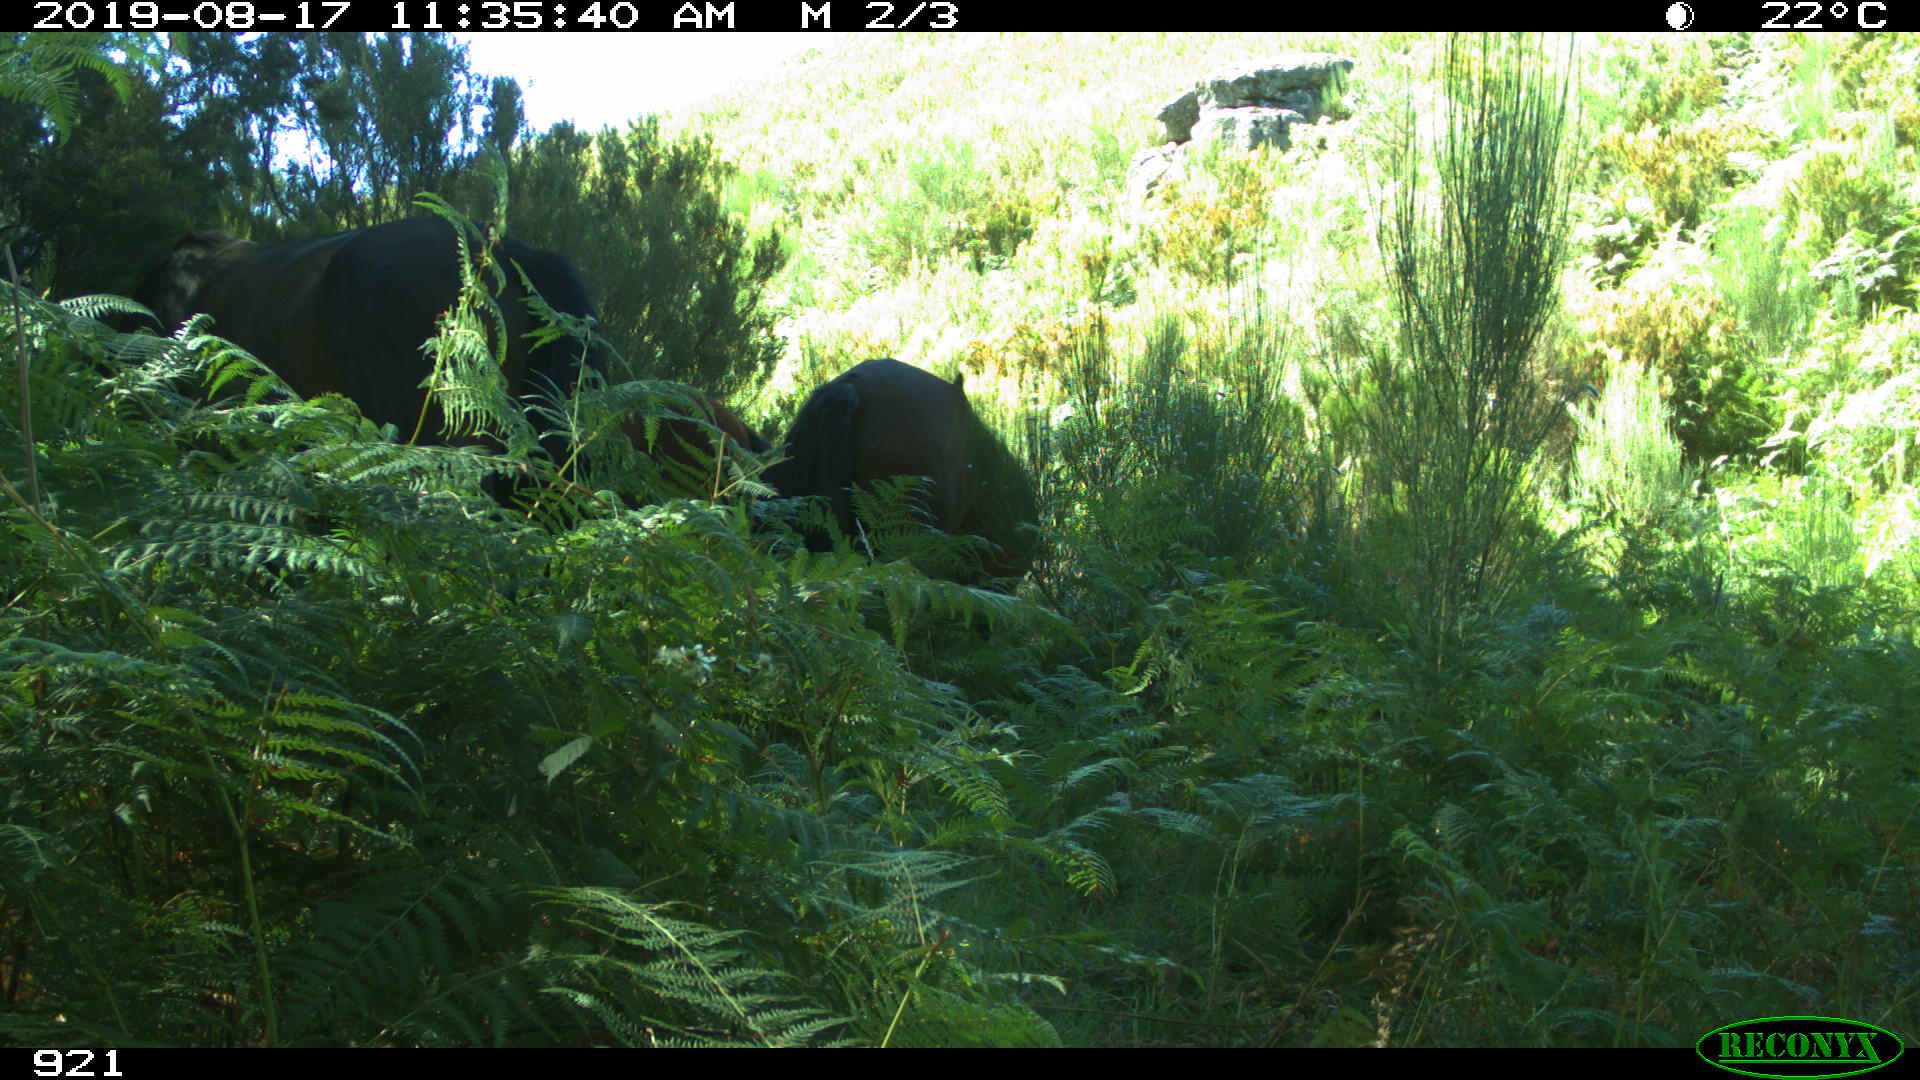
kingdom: Animalia
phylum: Chordata
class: Mammalia
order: Perissodactyla
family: Equidae
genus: Equus
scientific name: Equus caballus
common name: Horse
